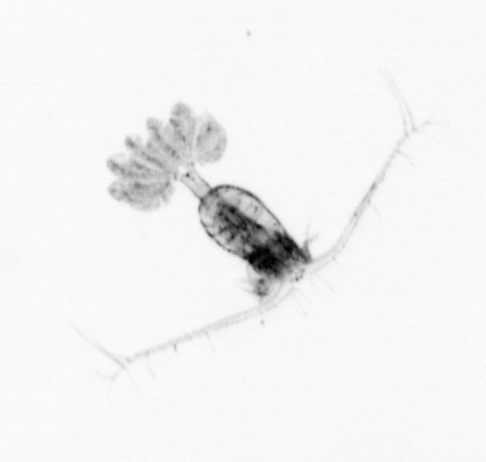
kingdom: Animalia
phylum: Arthropoda
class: Copepoda
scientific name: Copepoda
